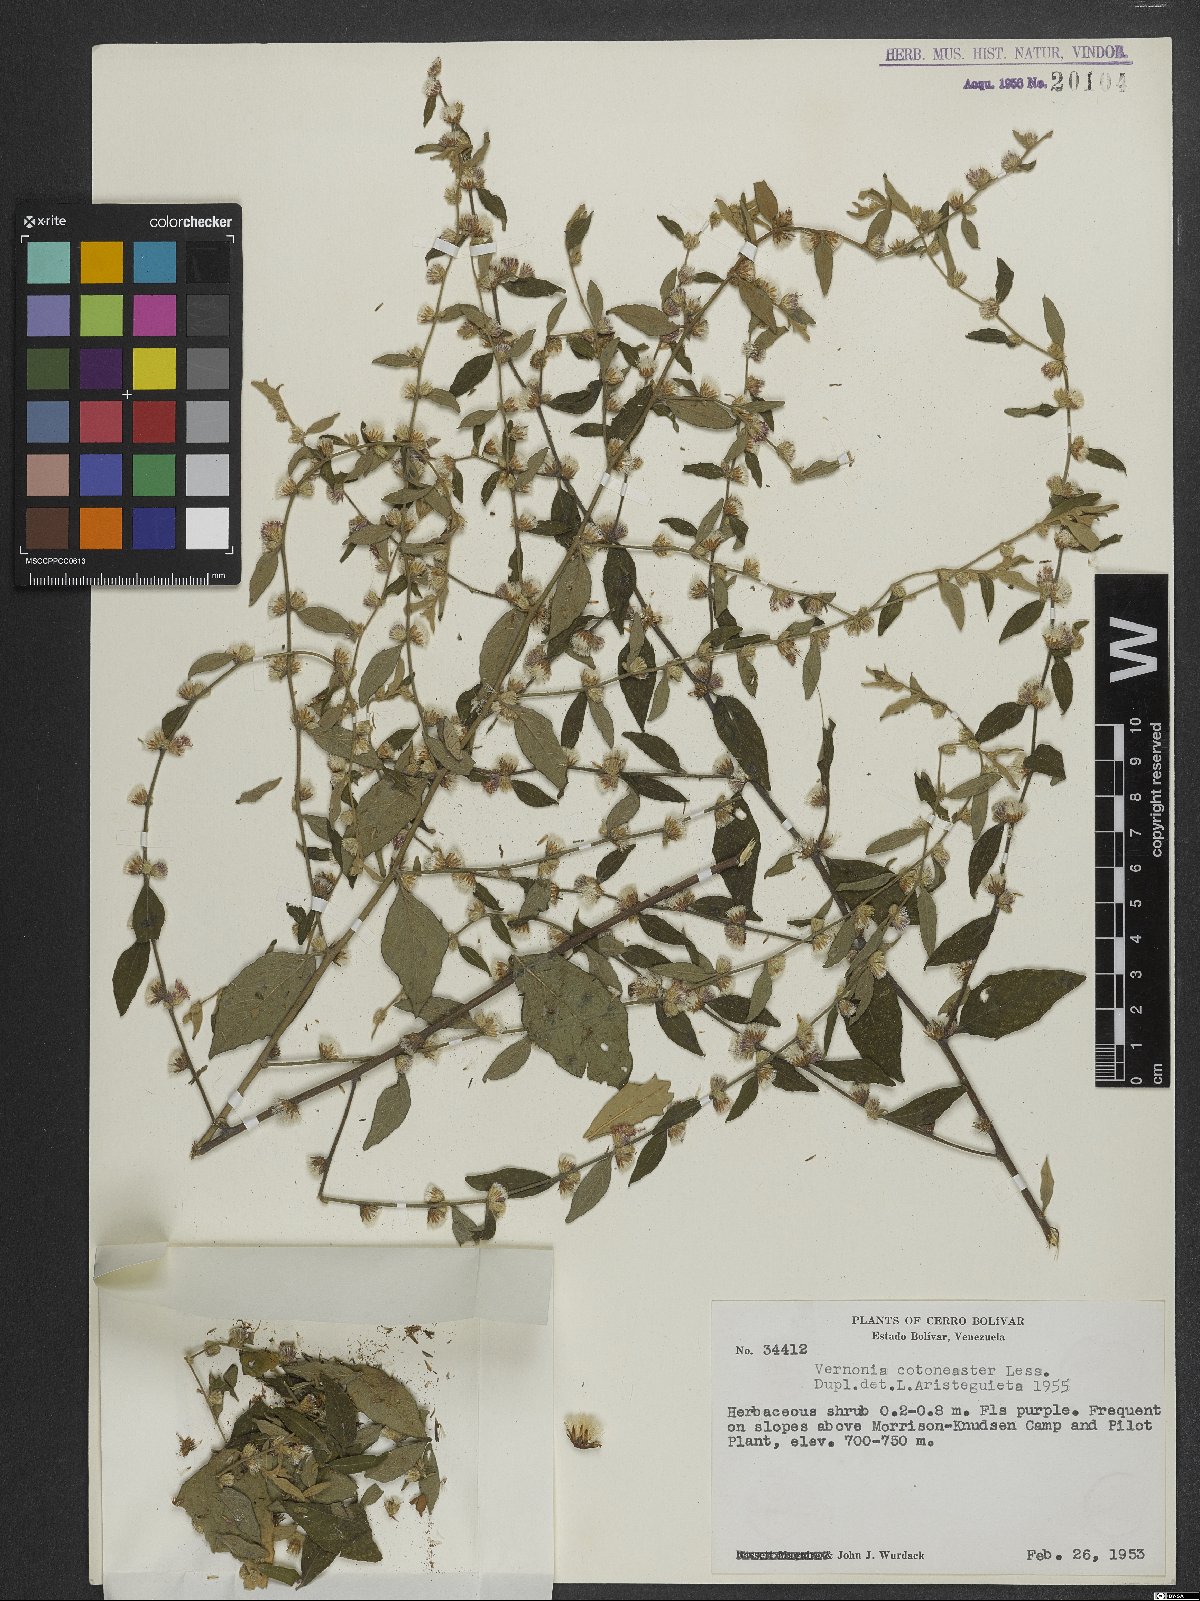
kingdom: Plantae
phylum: Tracheophyta
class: Magnoliopsida
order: Asterales
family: Asteraceae
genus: Lepidaploa
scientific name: Lepidaploa cotoneaster
